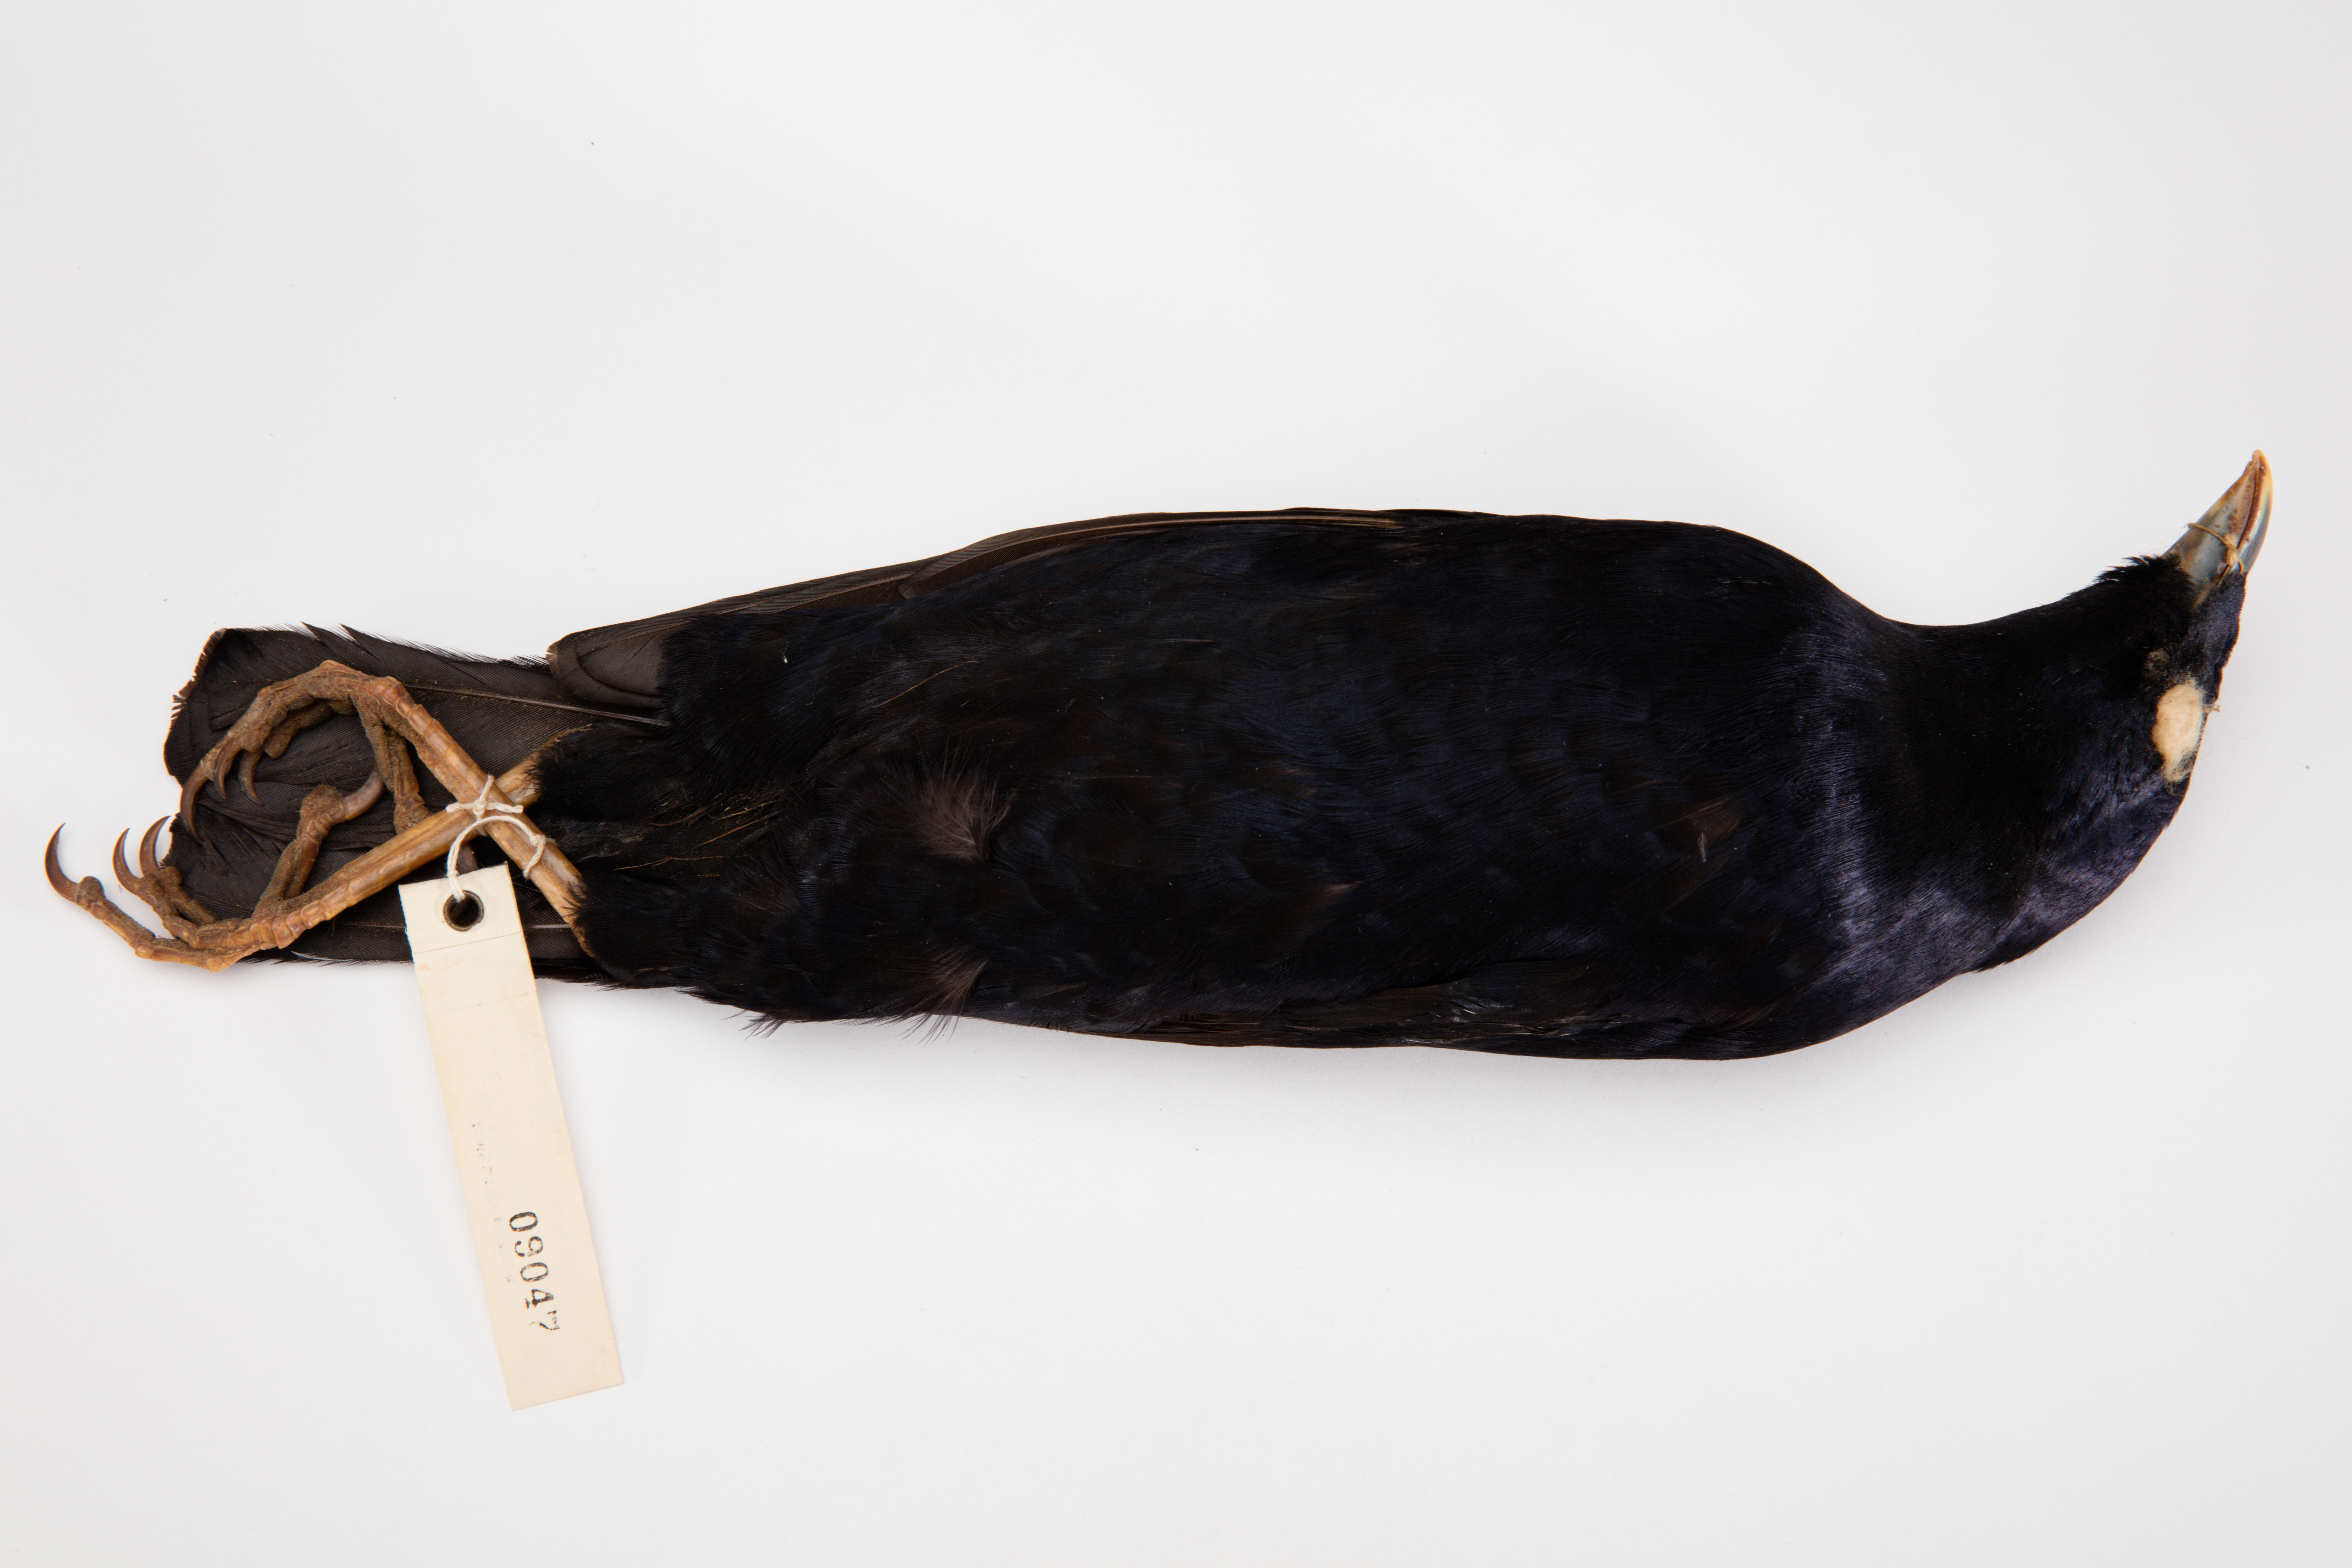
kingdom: Animalia
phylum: Chordata
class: Aves
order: Passeriformes
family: Ptilonorhynchidae
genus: Ptilonorhynchus
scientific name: Ptilonorhynchus violaceus
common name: Satin bowerbird
